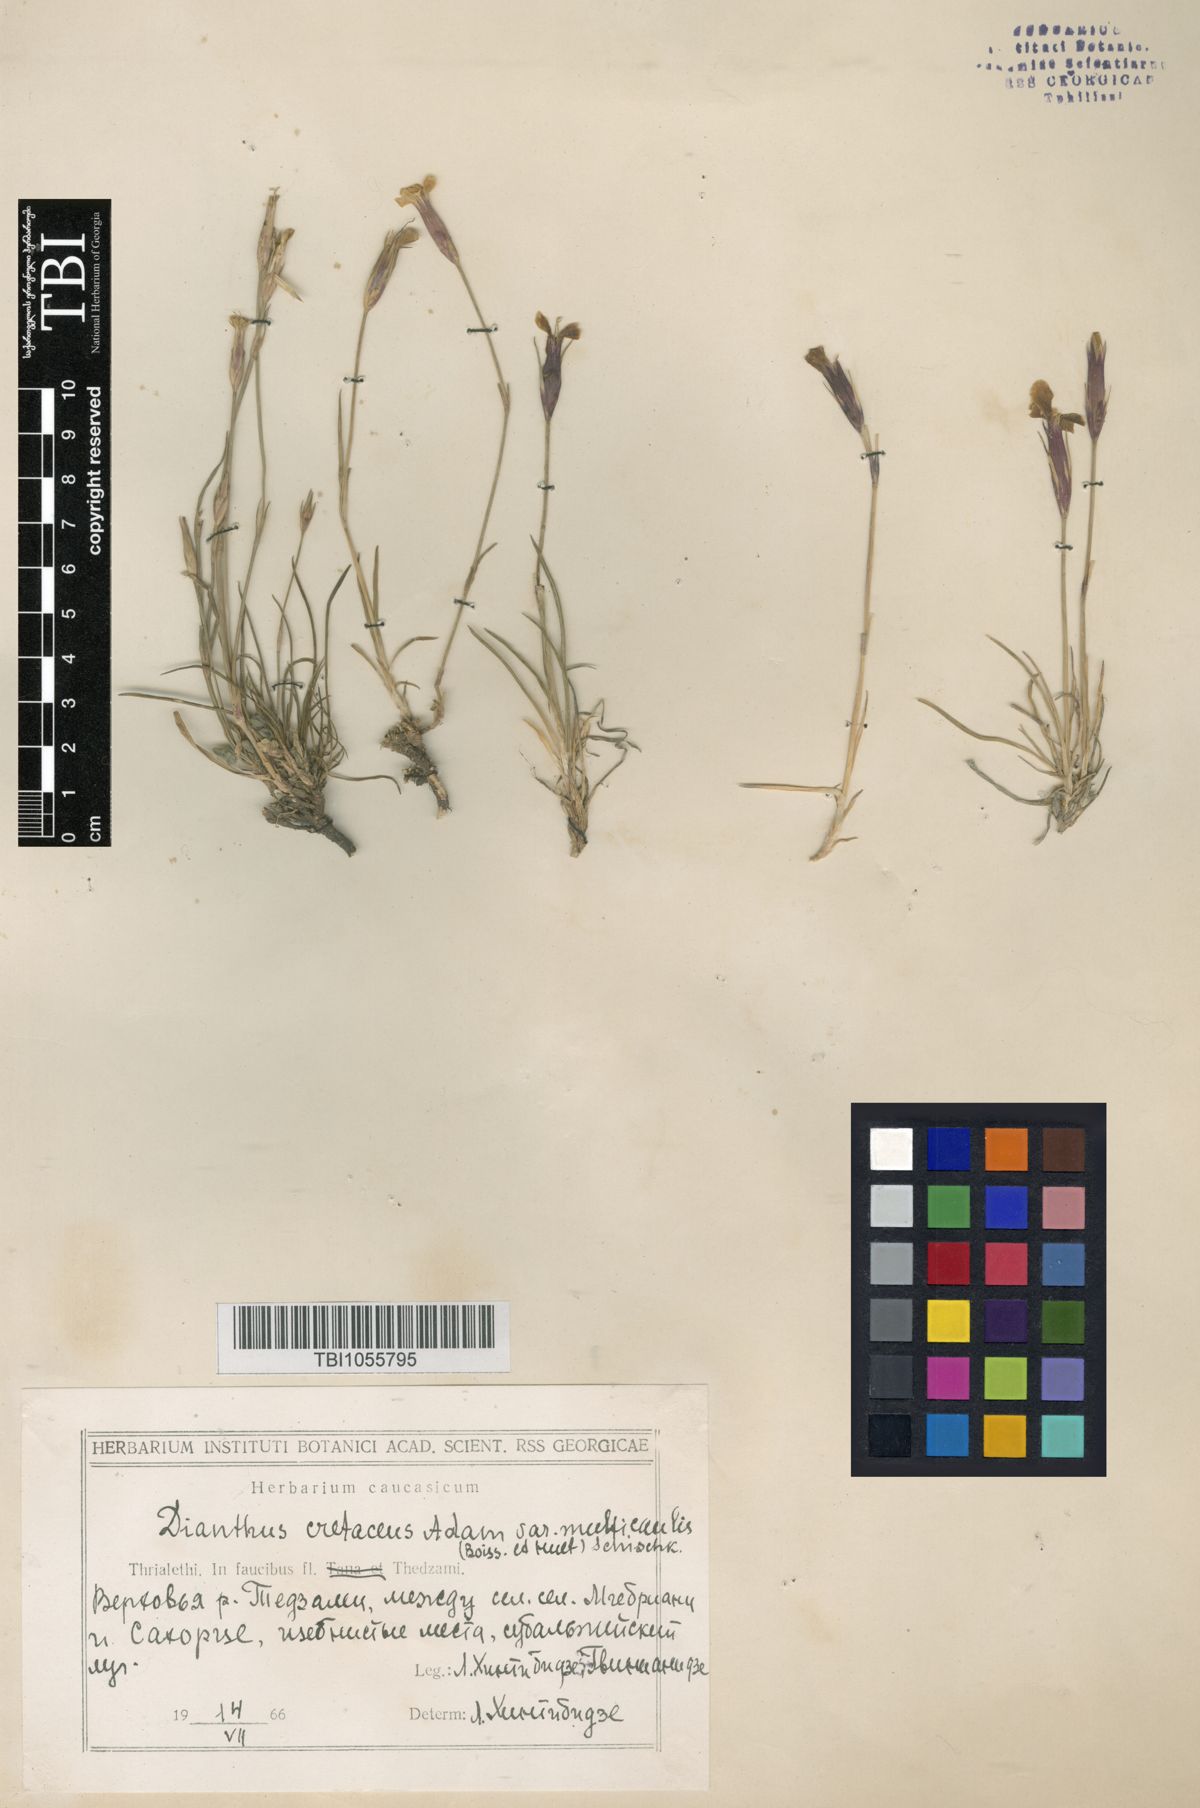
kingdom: Plantae
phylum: Tracheophyta
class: Magnoliopsida
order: Caryophyllales
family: Caryophyllaceae
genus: Dianthus
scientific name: Dianthus cretaceus
